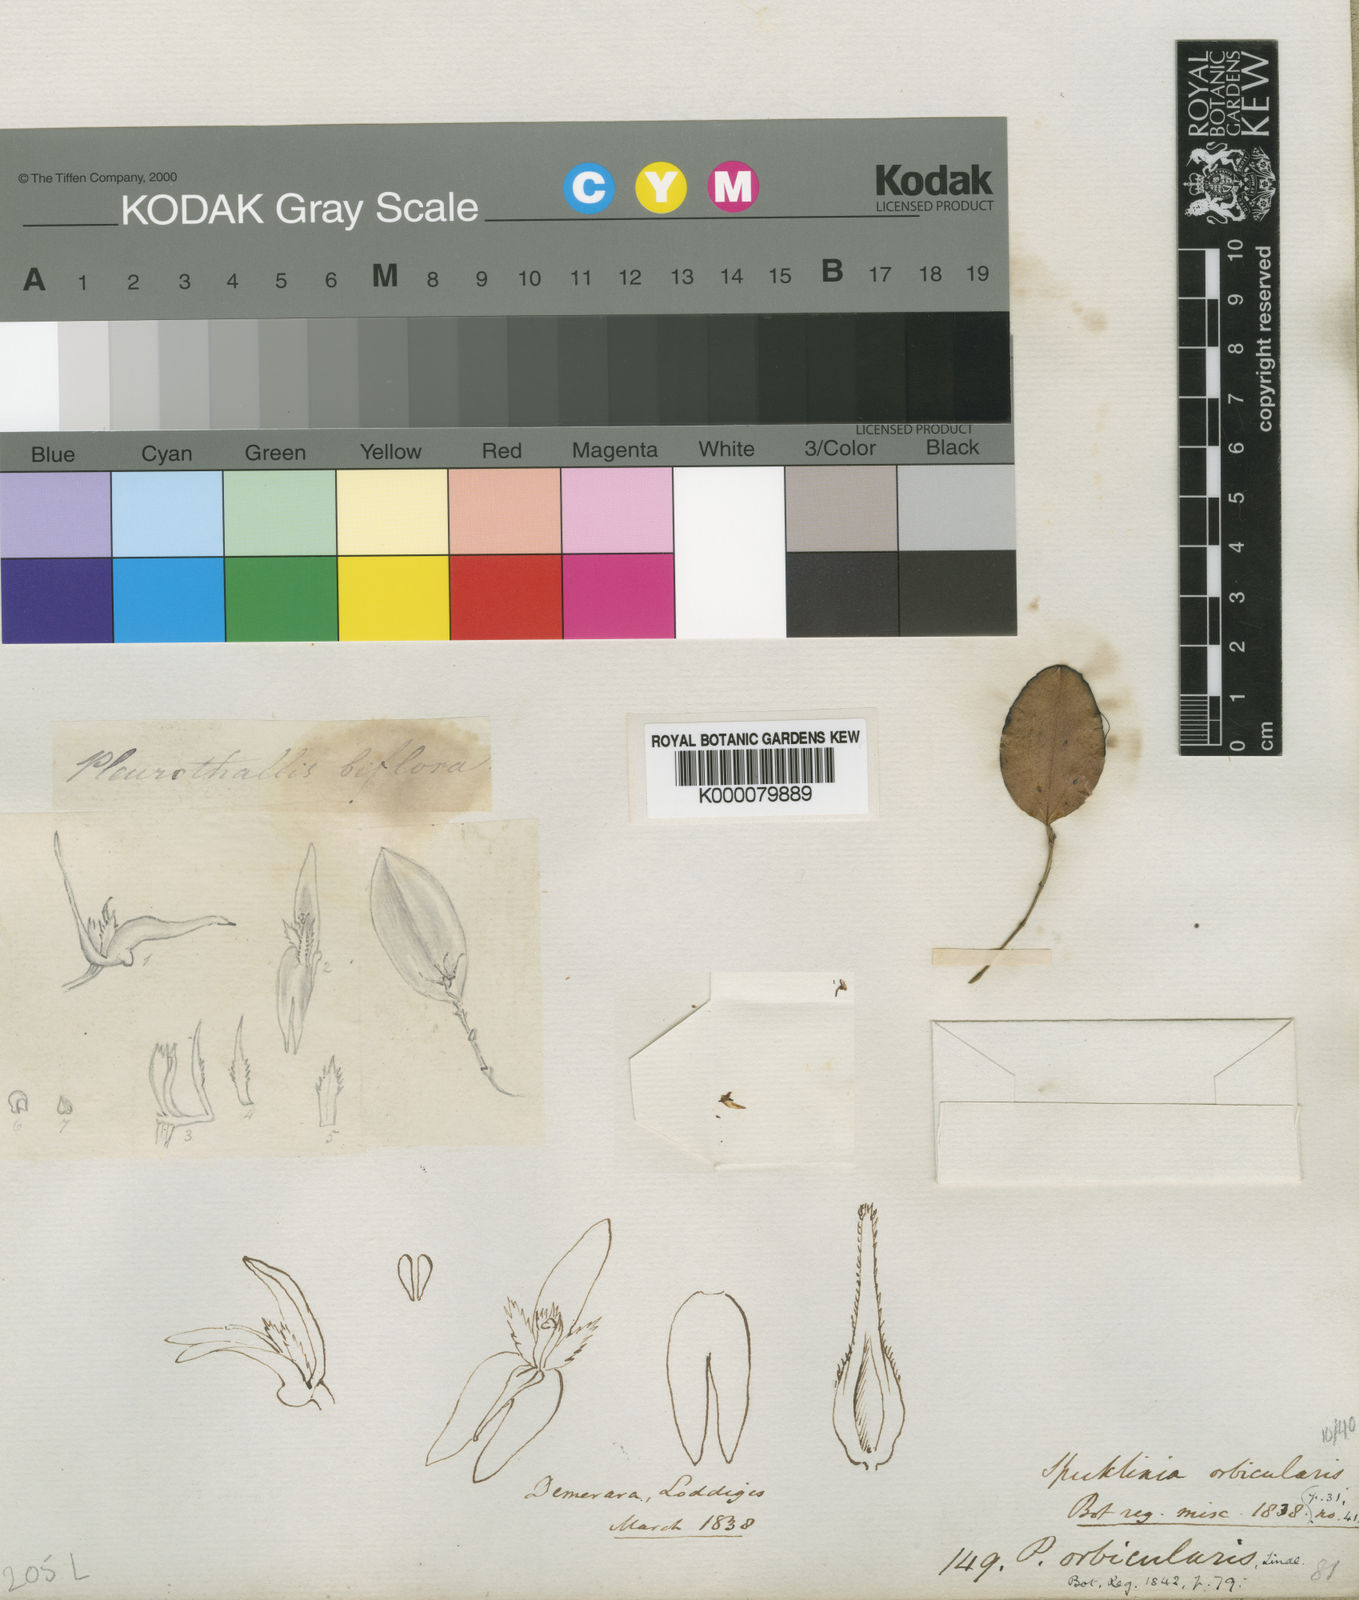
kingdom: Plantae
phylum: Tracheophyta
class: Liliopsida
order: Asparagales
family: Orchidaceae
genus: Trichosalpinx
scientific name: Trichosalpinx orbicularis
